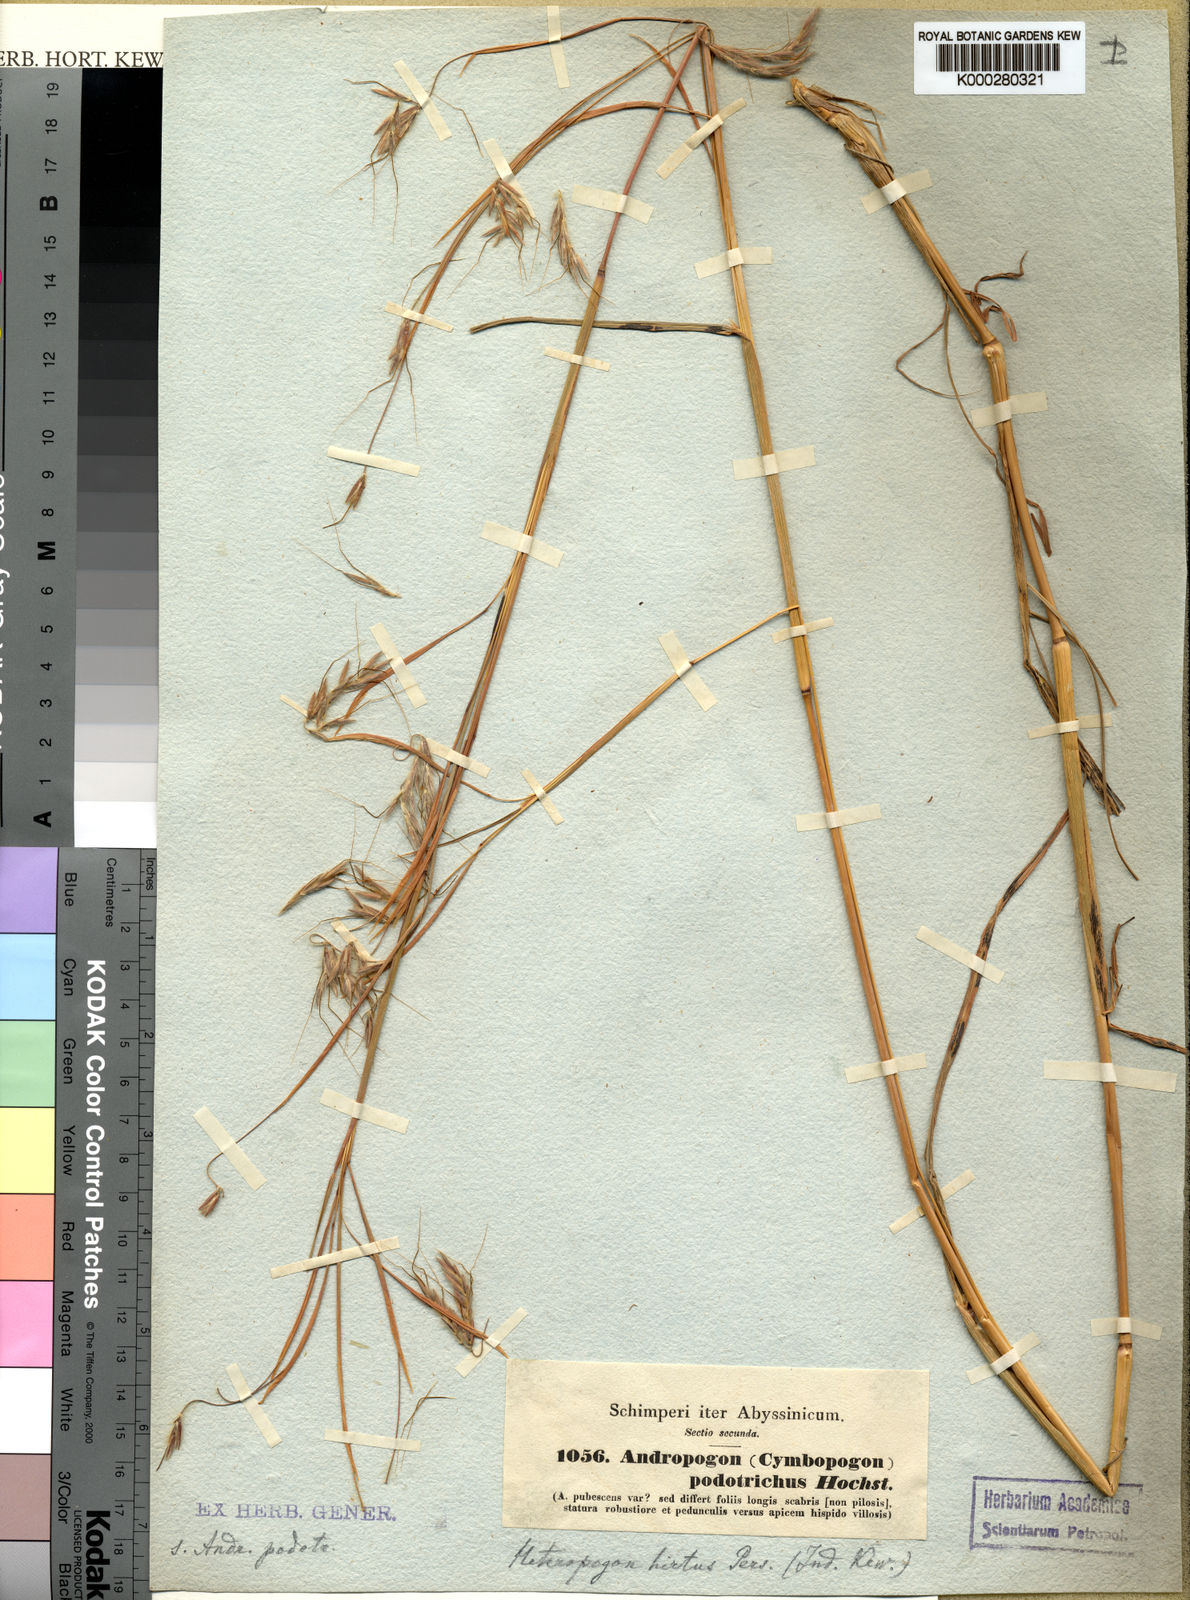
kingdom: Plantae
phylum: Tracheophyta
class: Liliopsida
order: Poales
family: Poaceae
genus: Hyparrhenia
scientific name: Hyparrhenia hirta
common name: Thatching grass
